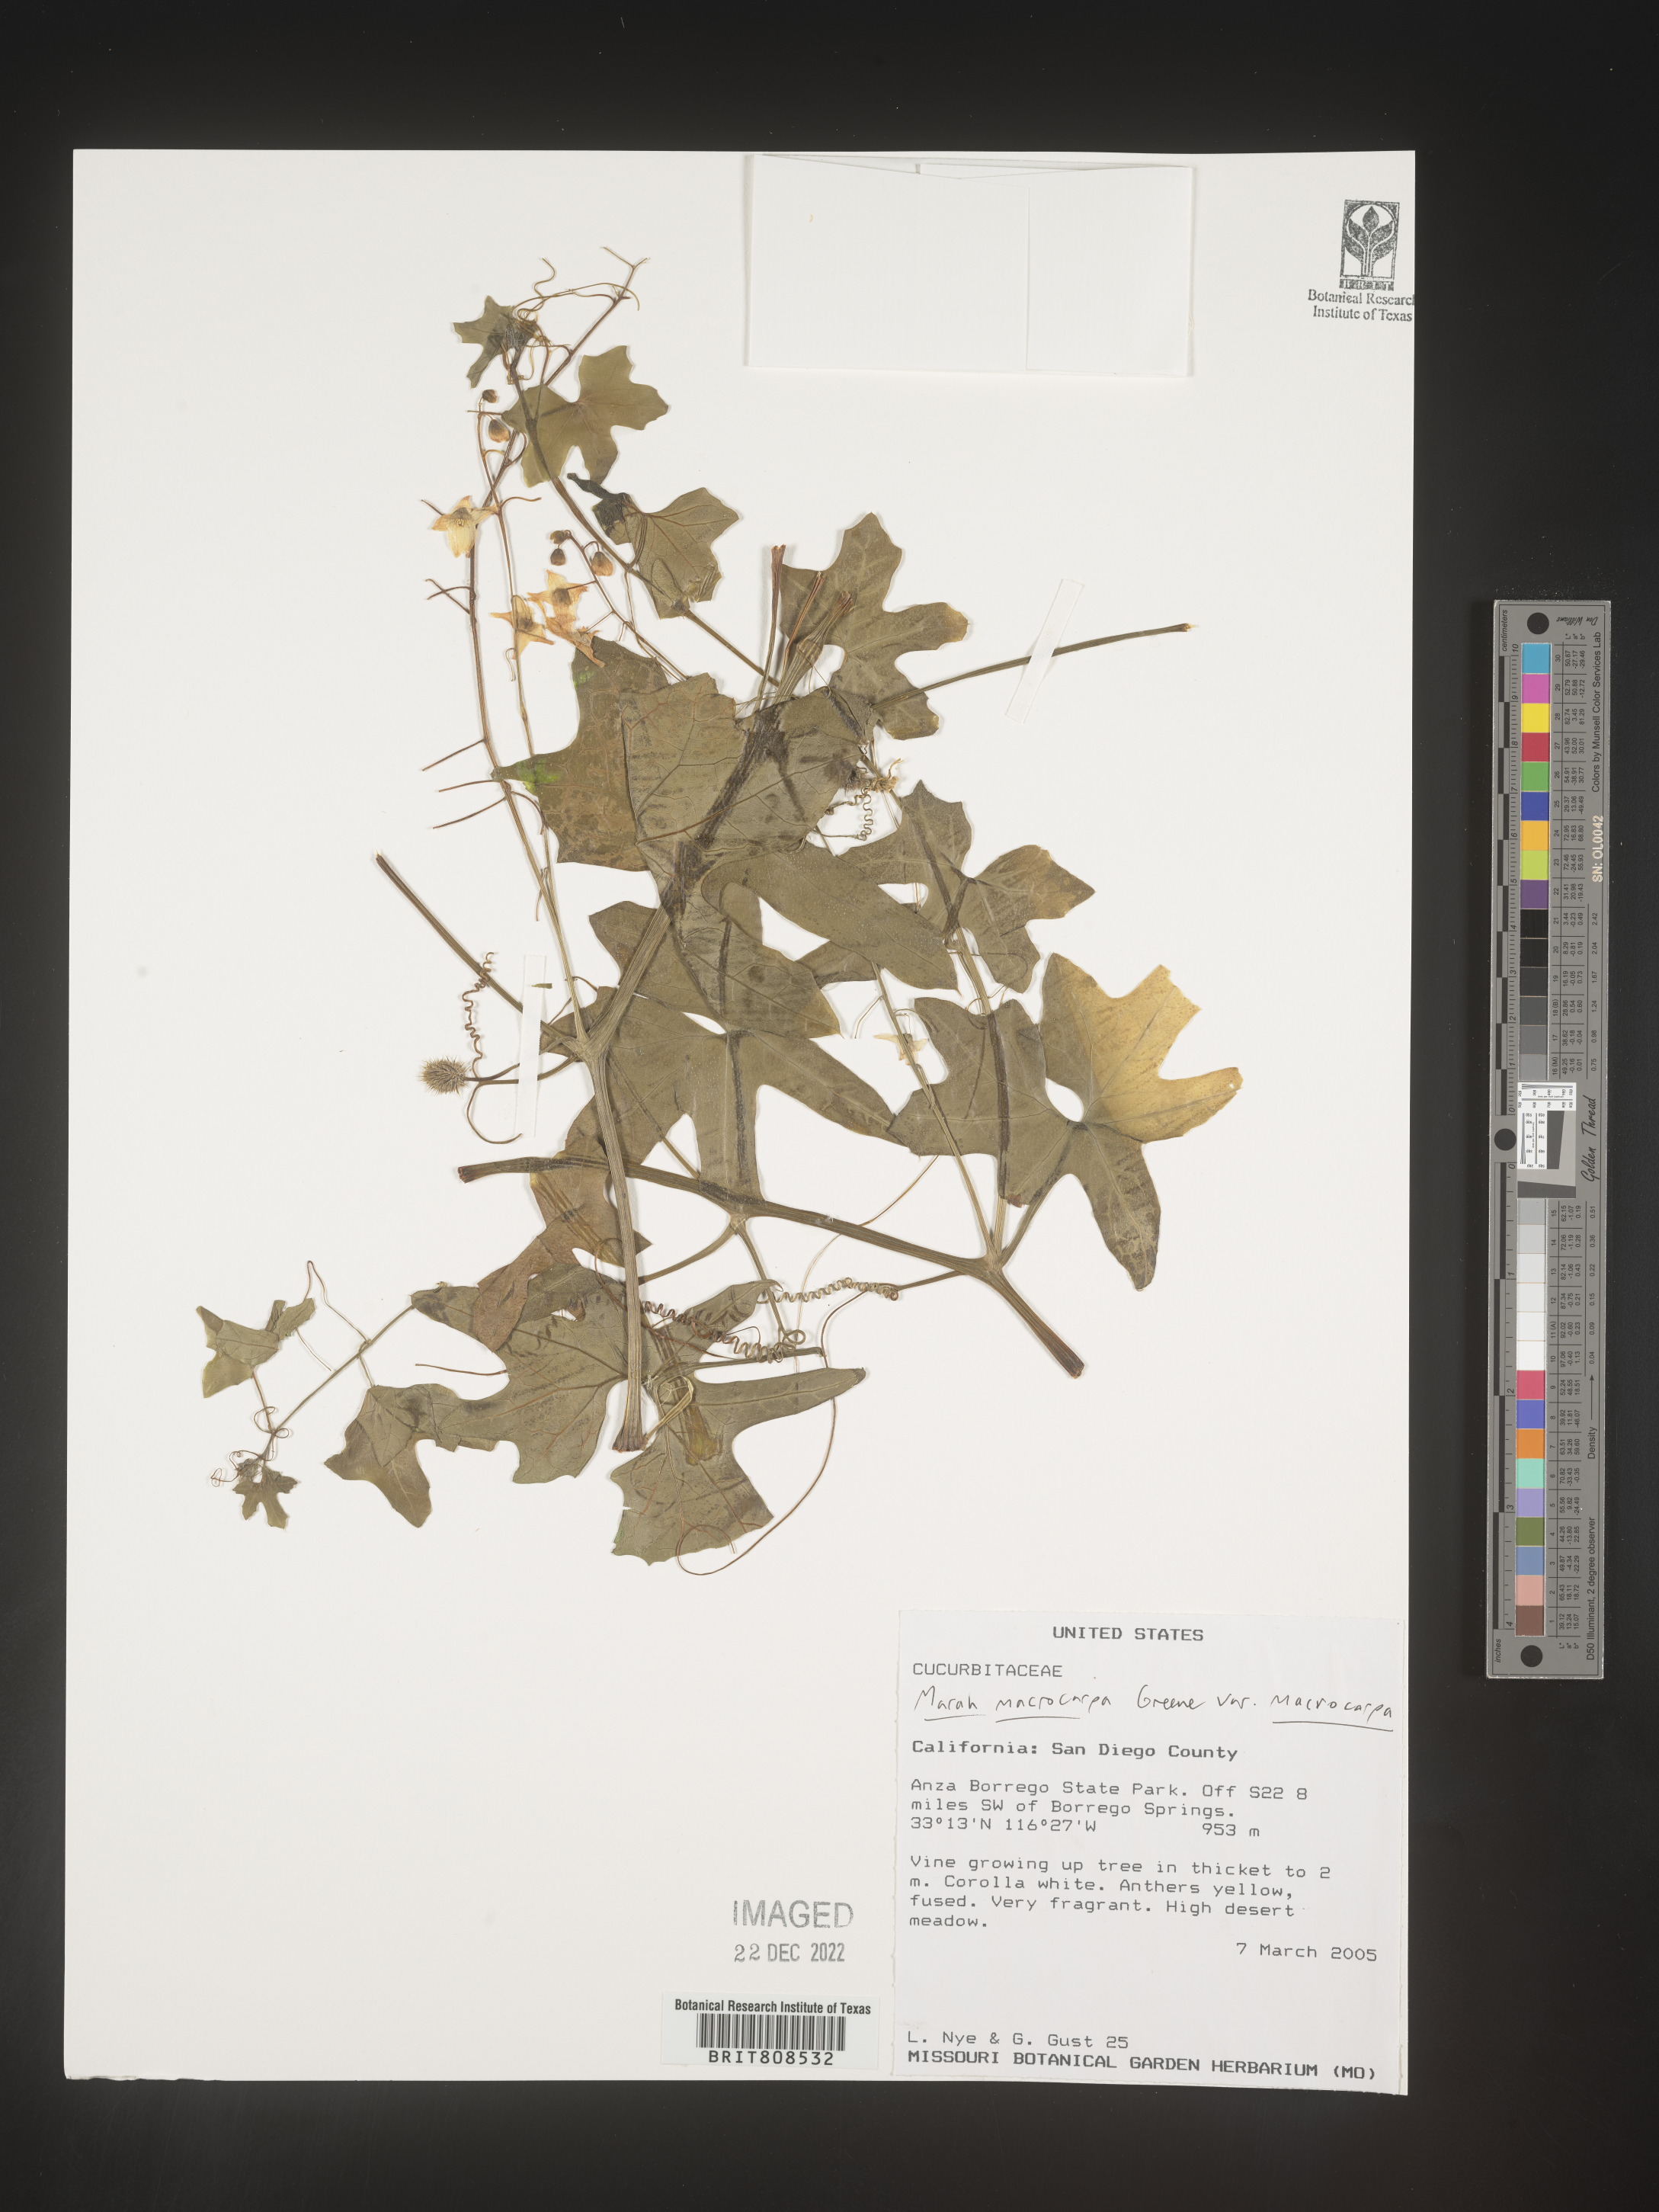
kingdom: Plantae
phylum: Tracheophyta
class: Magnoliopsida
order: Cucurbitales
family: Cucurbitaceae
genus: Marah
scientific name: Marah
